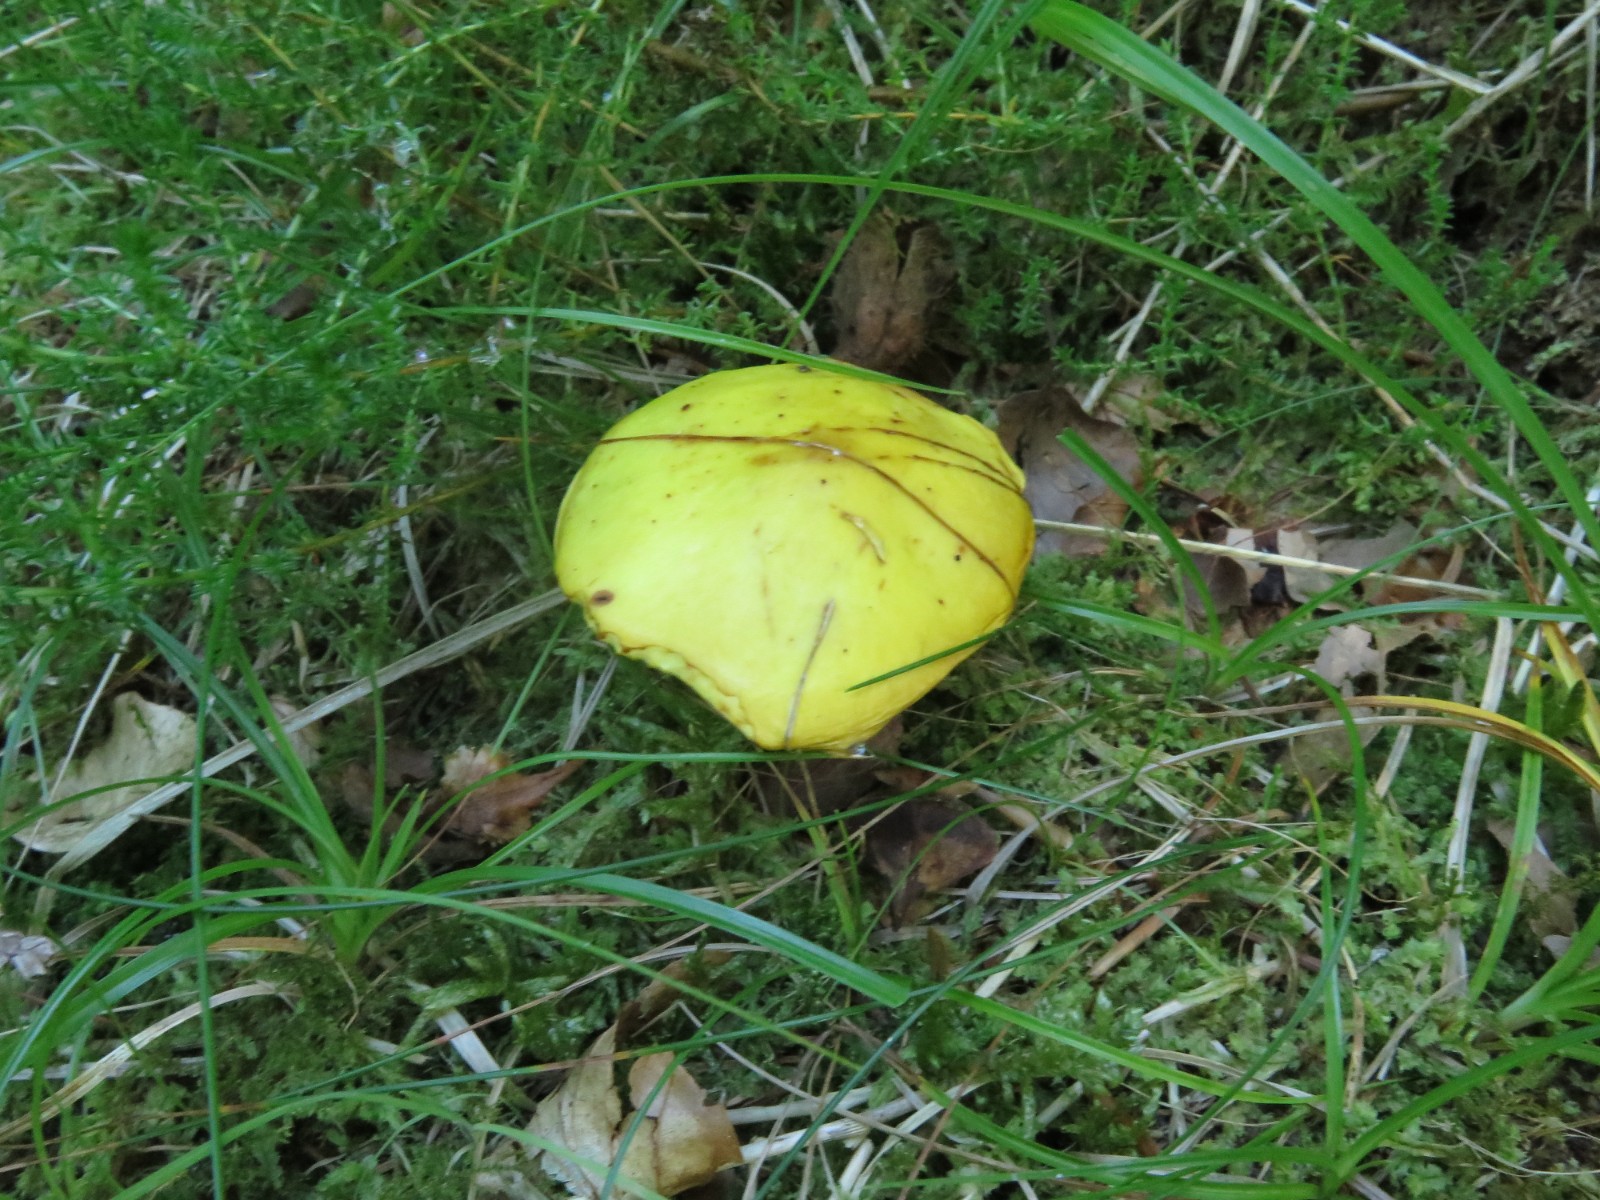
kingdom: Fungi
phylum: Basidiomycota
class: Agaricomycetes
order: Boletales
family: Suillaceae
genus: Suillus
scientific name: Suillus grevillei
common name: lærke-slimrørhat
